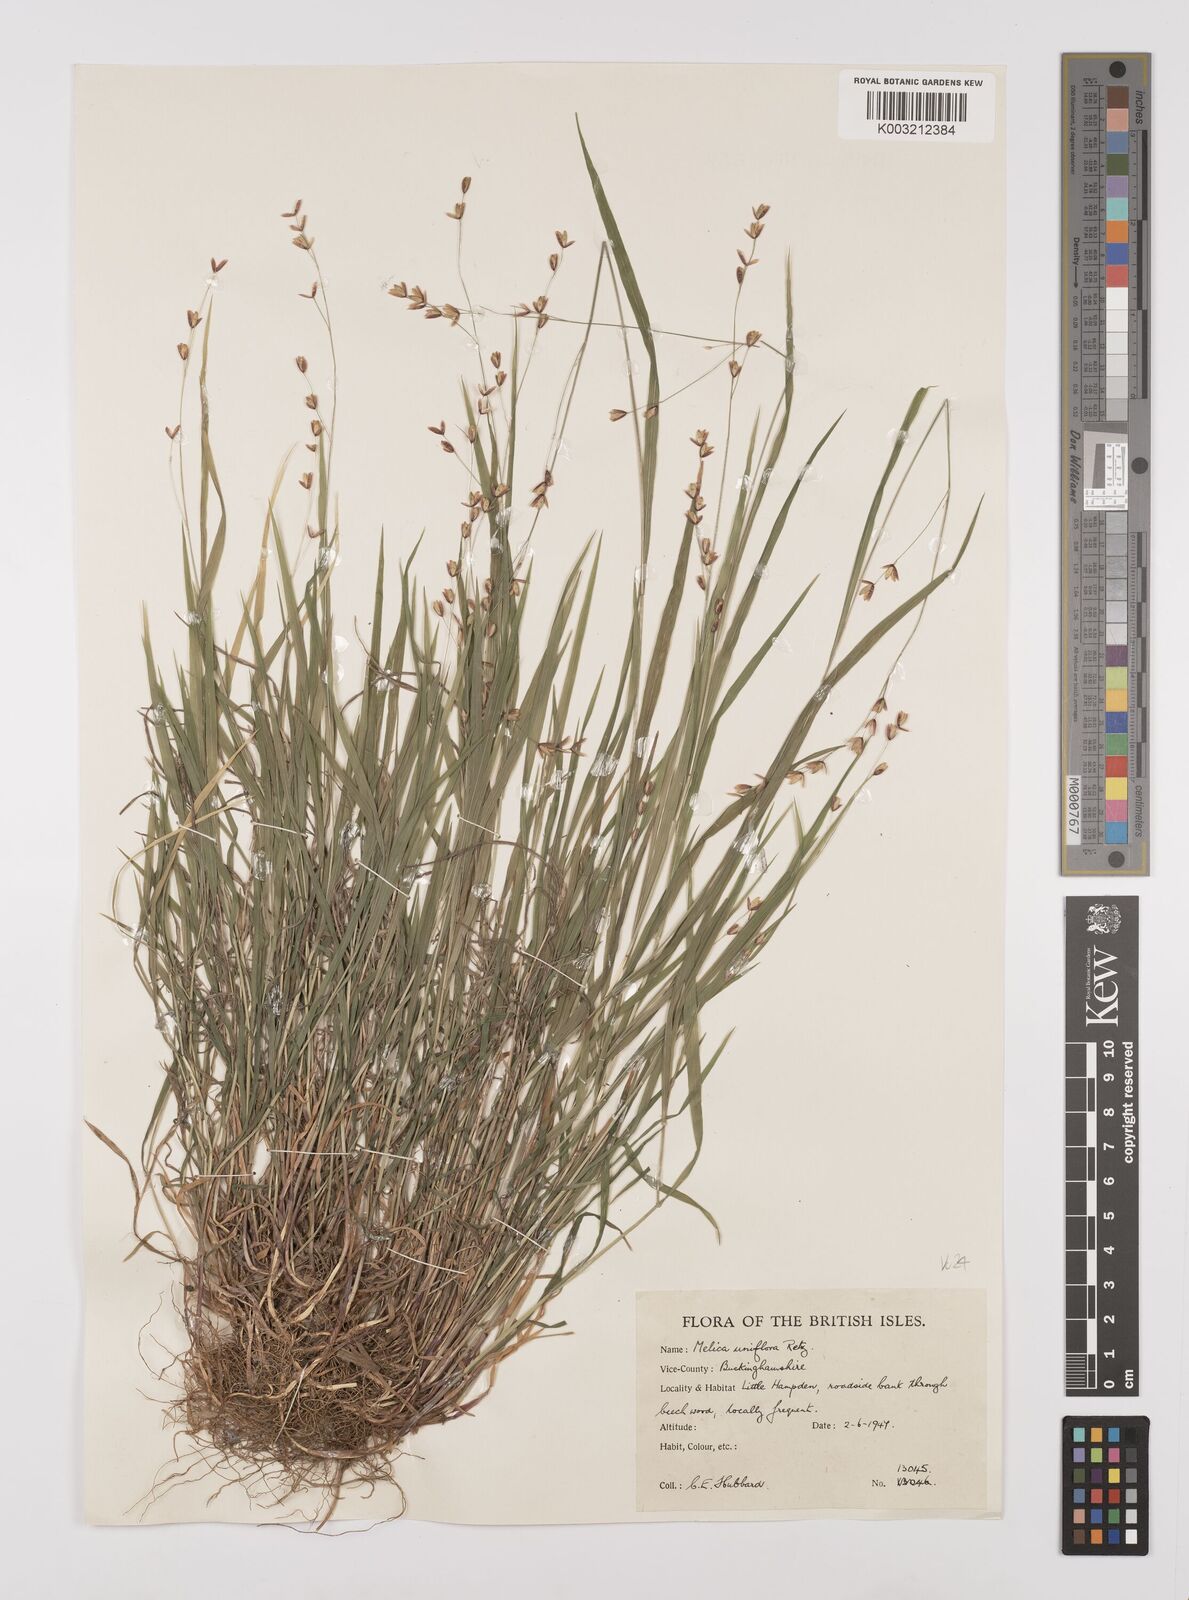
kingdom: Plantae
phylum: Tracheophyta
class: Liliopsida
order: Poales
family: Poaceae
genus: Melica
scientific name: Melica uniflora
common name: Wood melick
